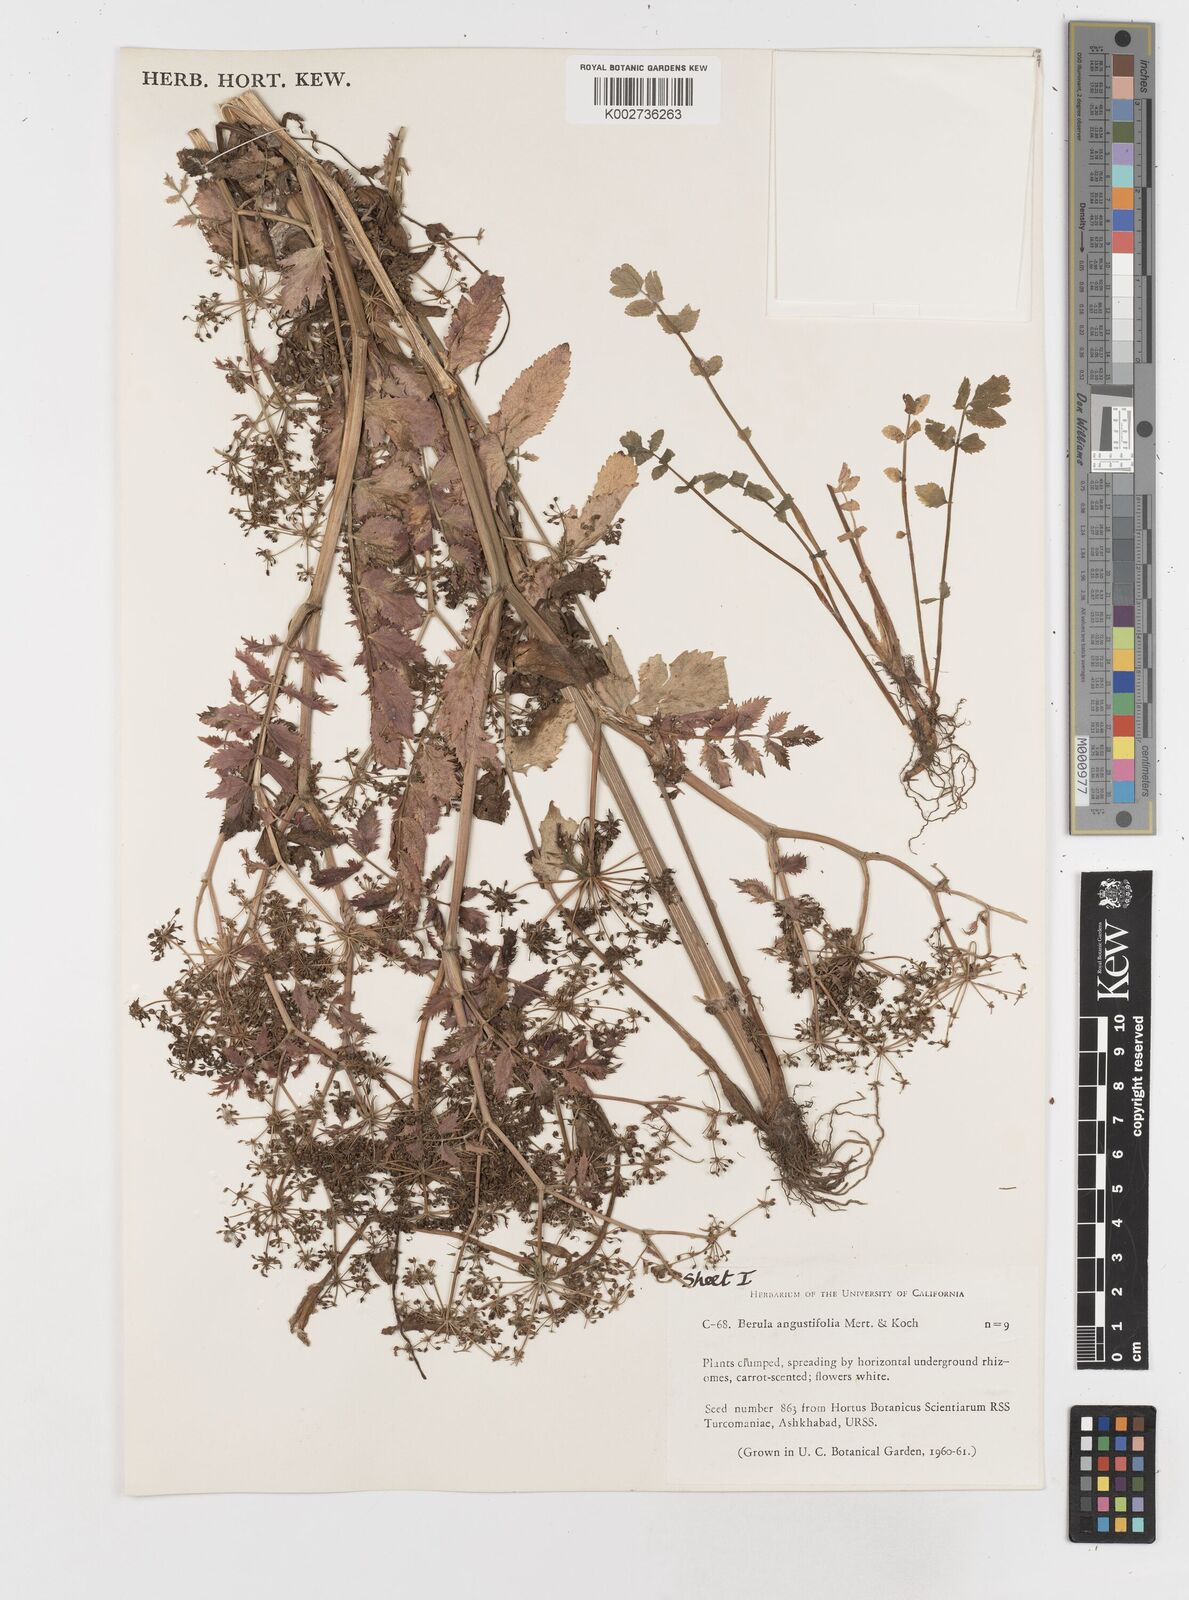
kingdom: Plantae
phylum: Tracheophyta
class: Magnoliopsida
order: Apiales
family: Apiaceae
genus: Berula
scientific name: Berula erecta
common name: Lesser water-parsnip
